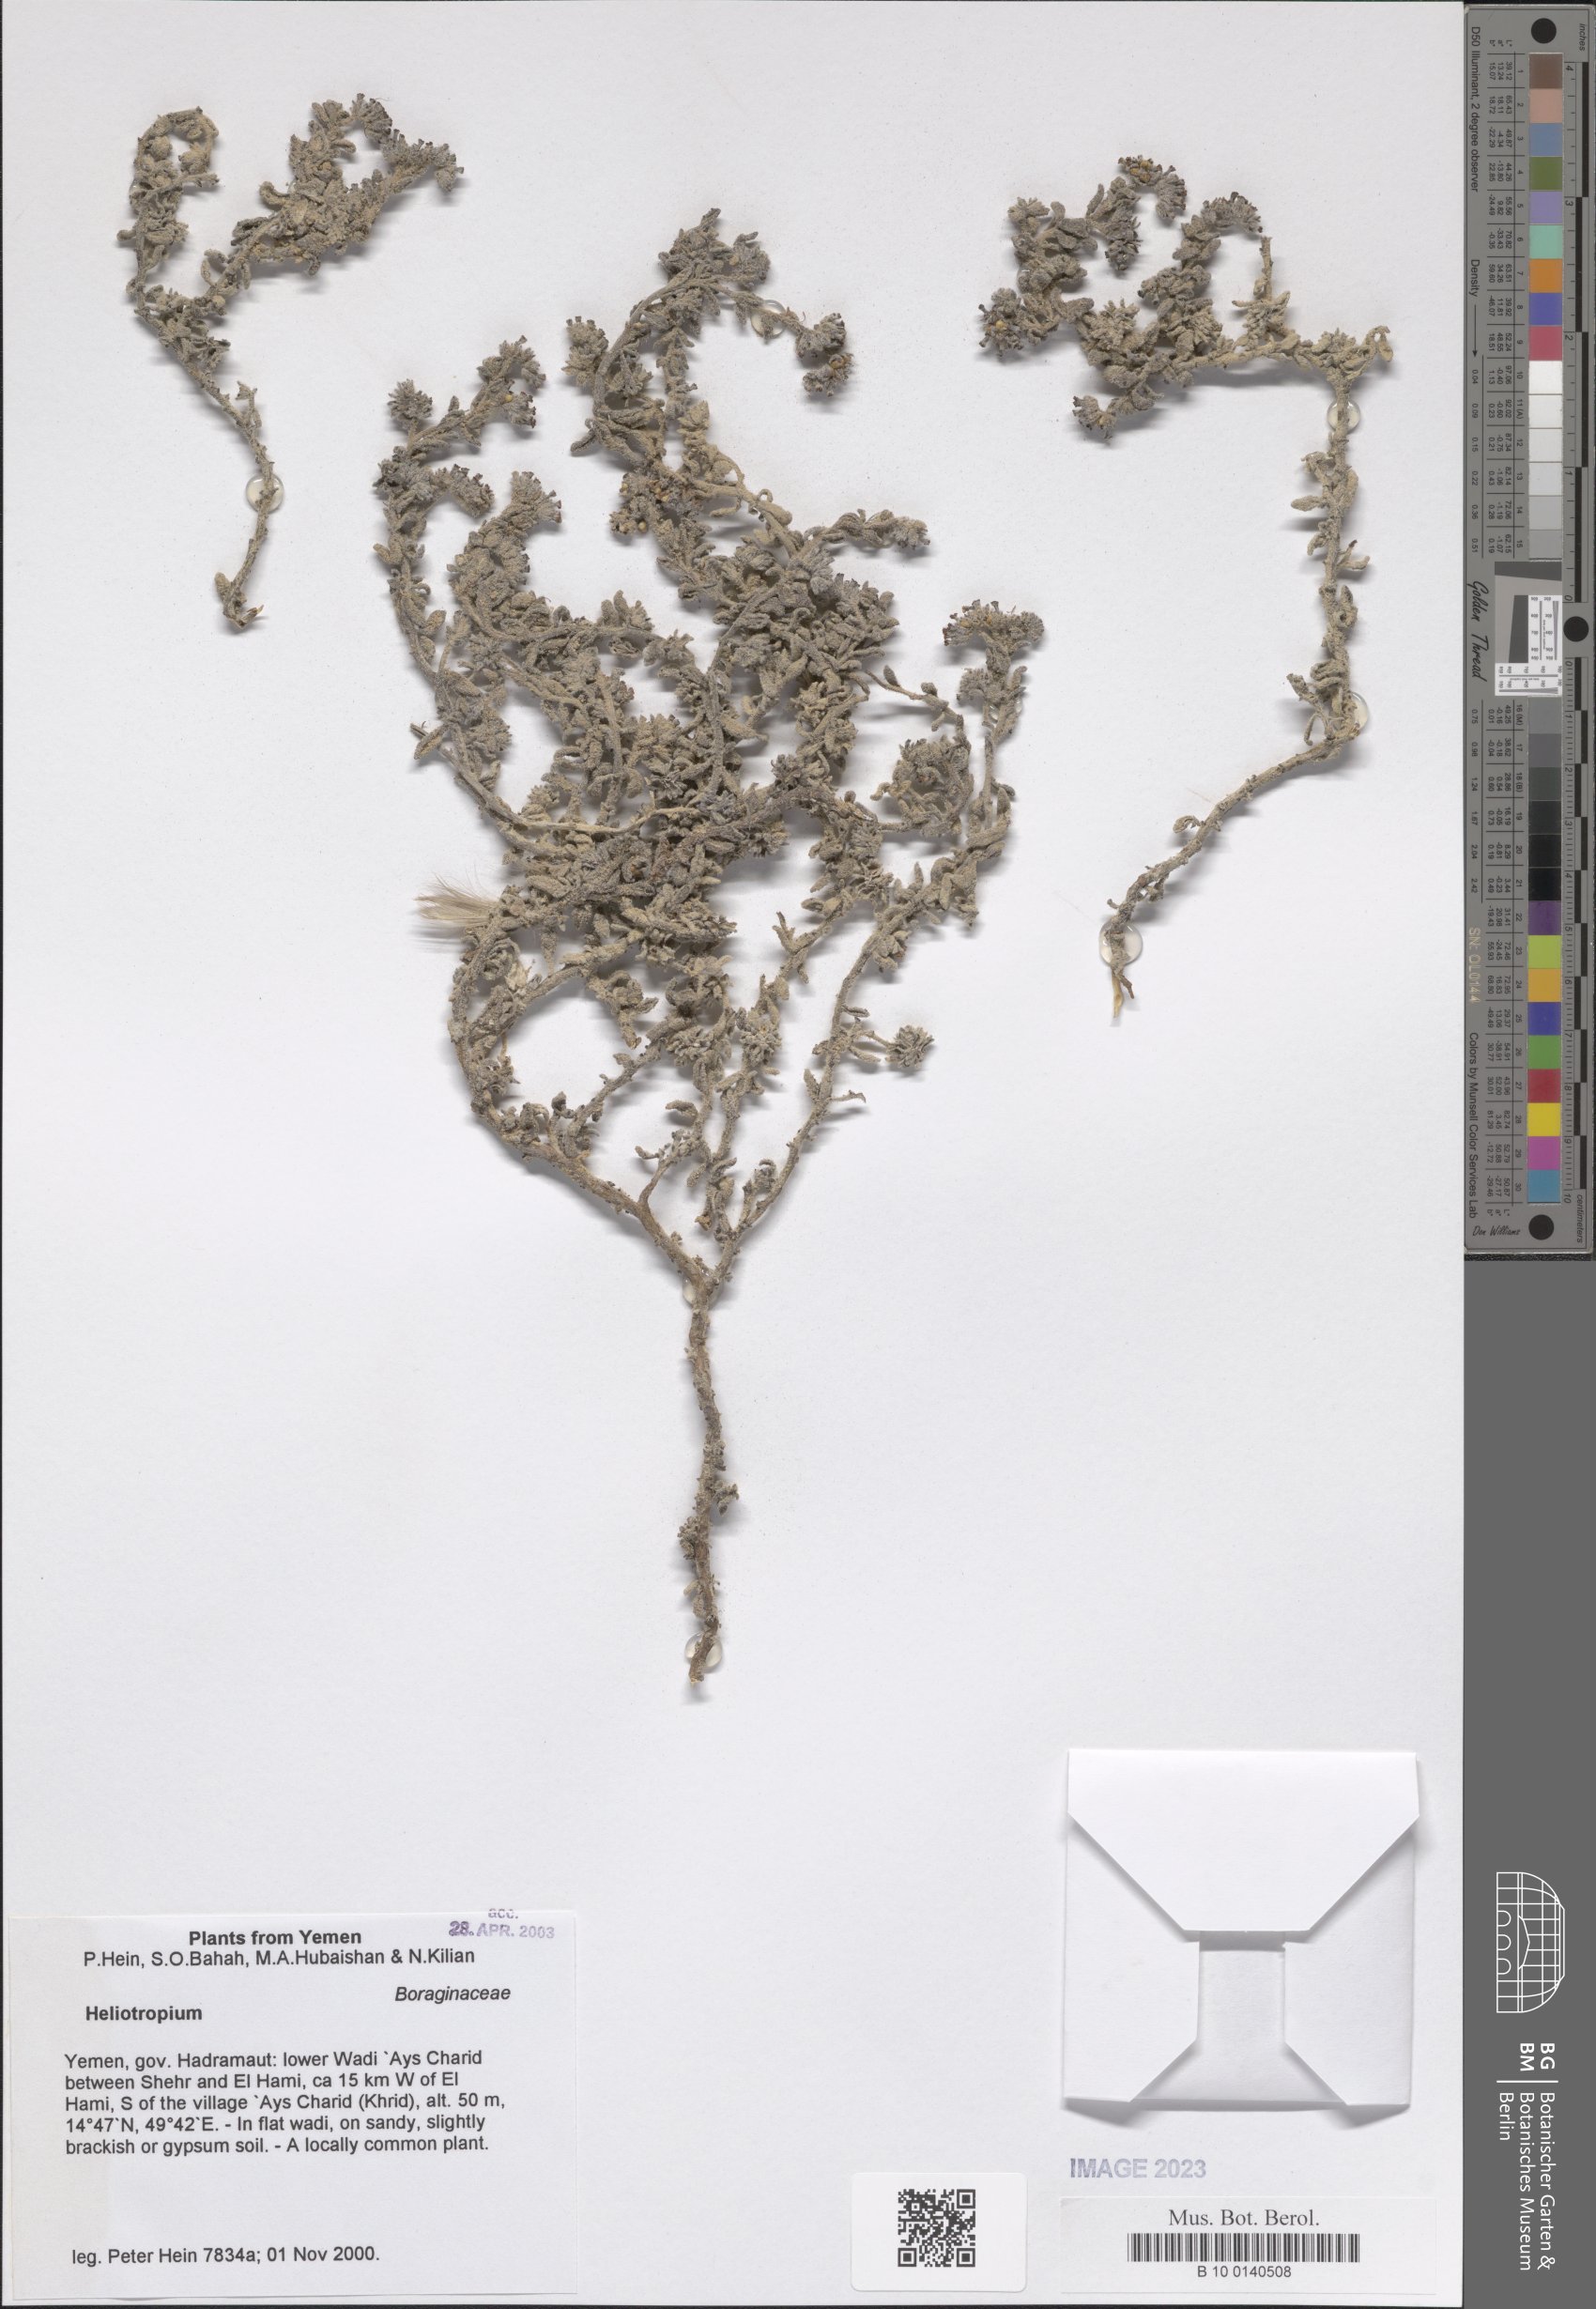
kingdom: Plantae
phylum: Tracheophyta
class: Magnoliopsida
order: Boraginales
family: Heliotropiaceae
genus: Heliotropium
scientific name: Heliotropium
